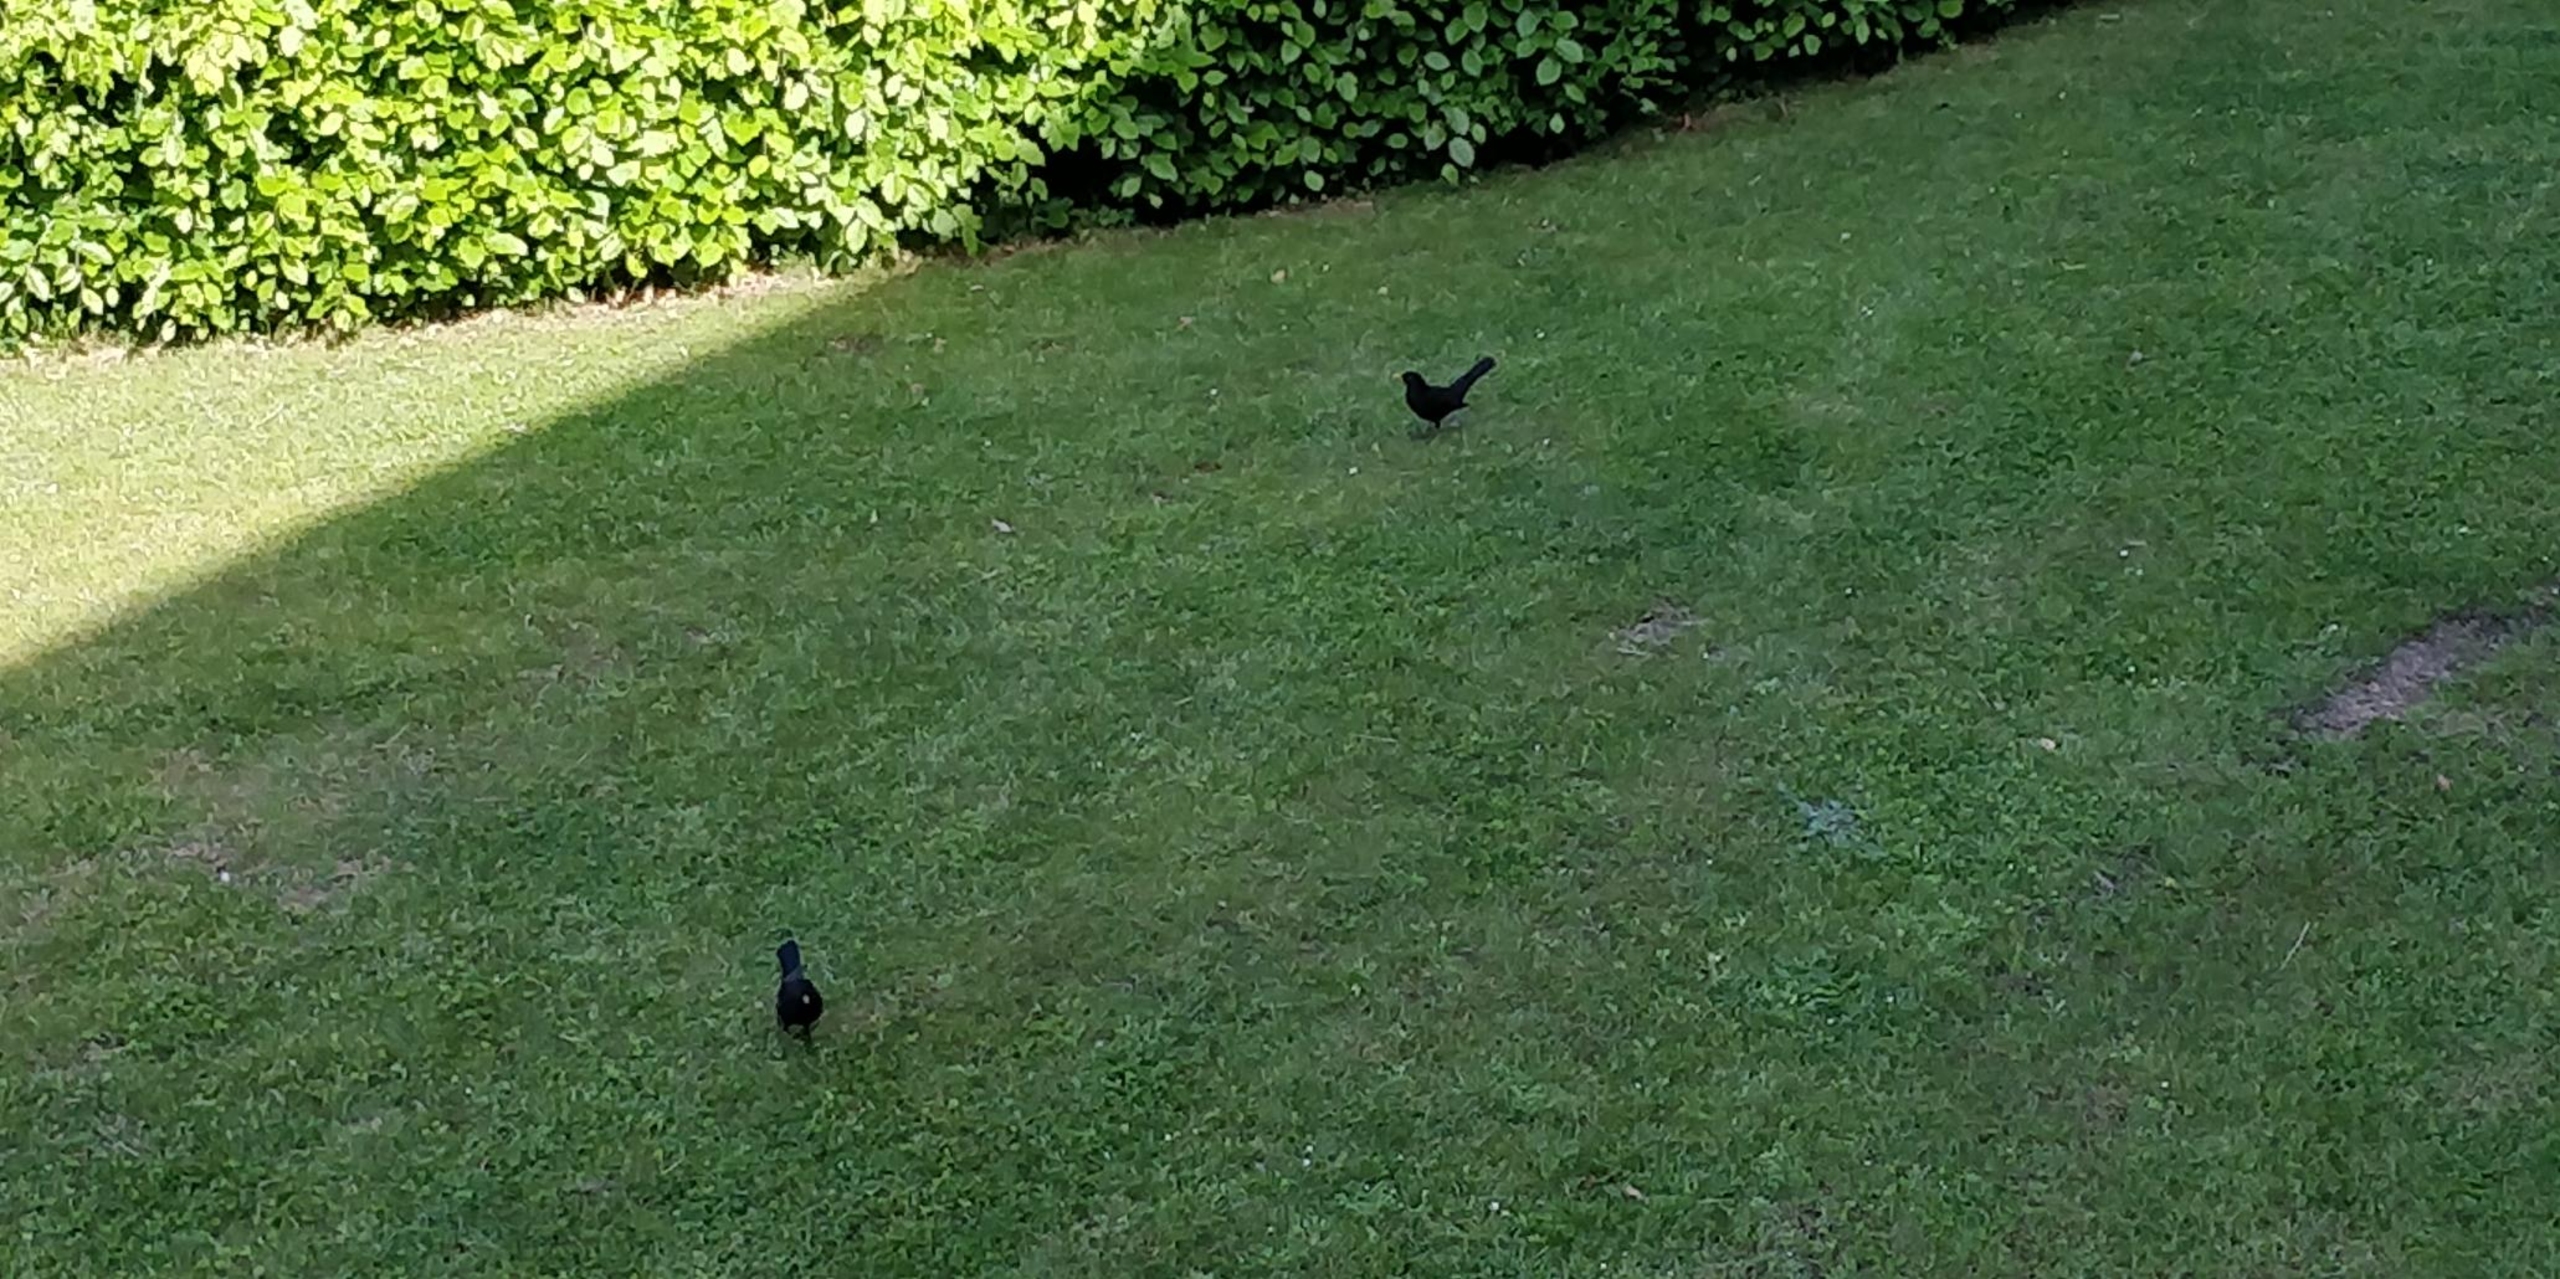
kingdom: Animalia
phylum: Chordata
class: Aves
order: Passeriformes
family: Turdidae
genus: Turdus
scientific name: Turdus merula
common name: Solsort
